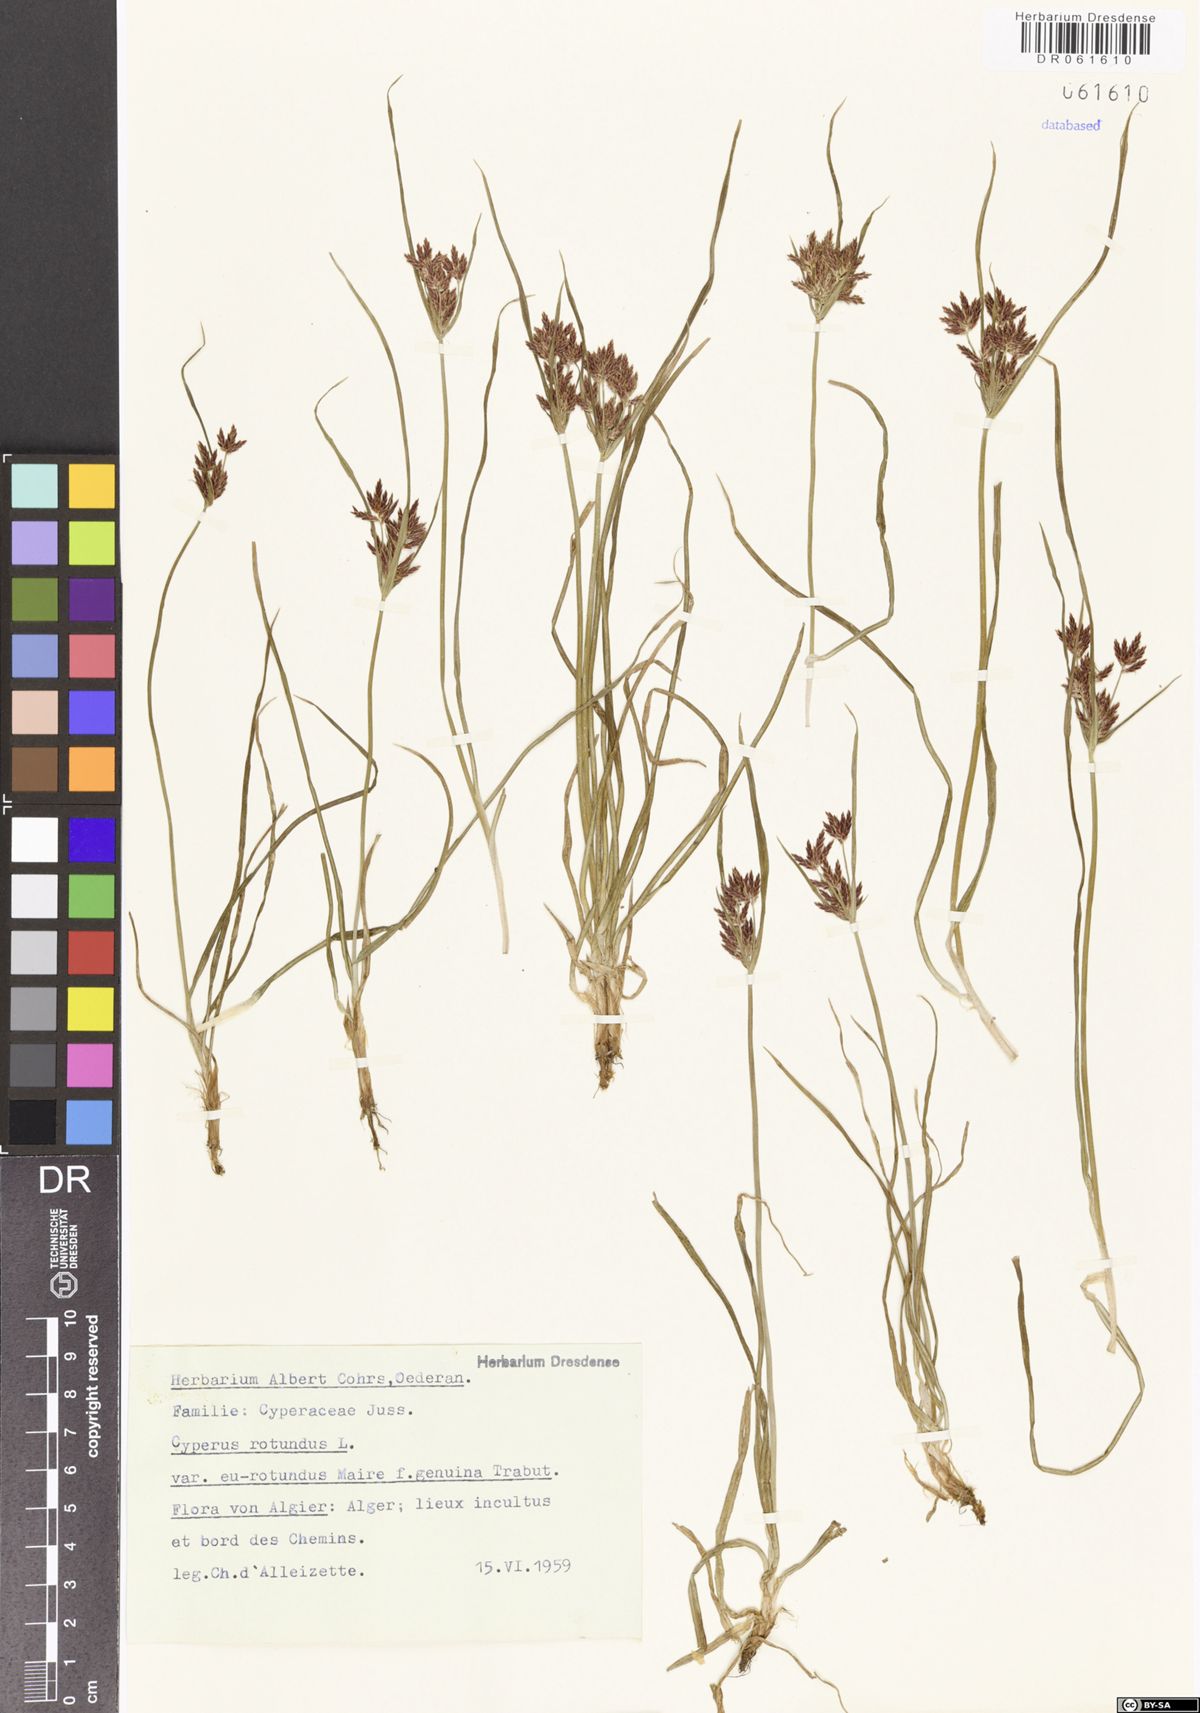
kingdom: Plantae
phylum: Tracheophyta
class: Liliopsida
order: Poales
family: Cyperaceae
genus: Cyperus
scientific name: Cyperus rotundus
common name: Nutgrass
